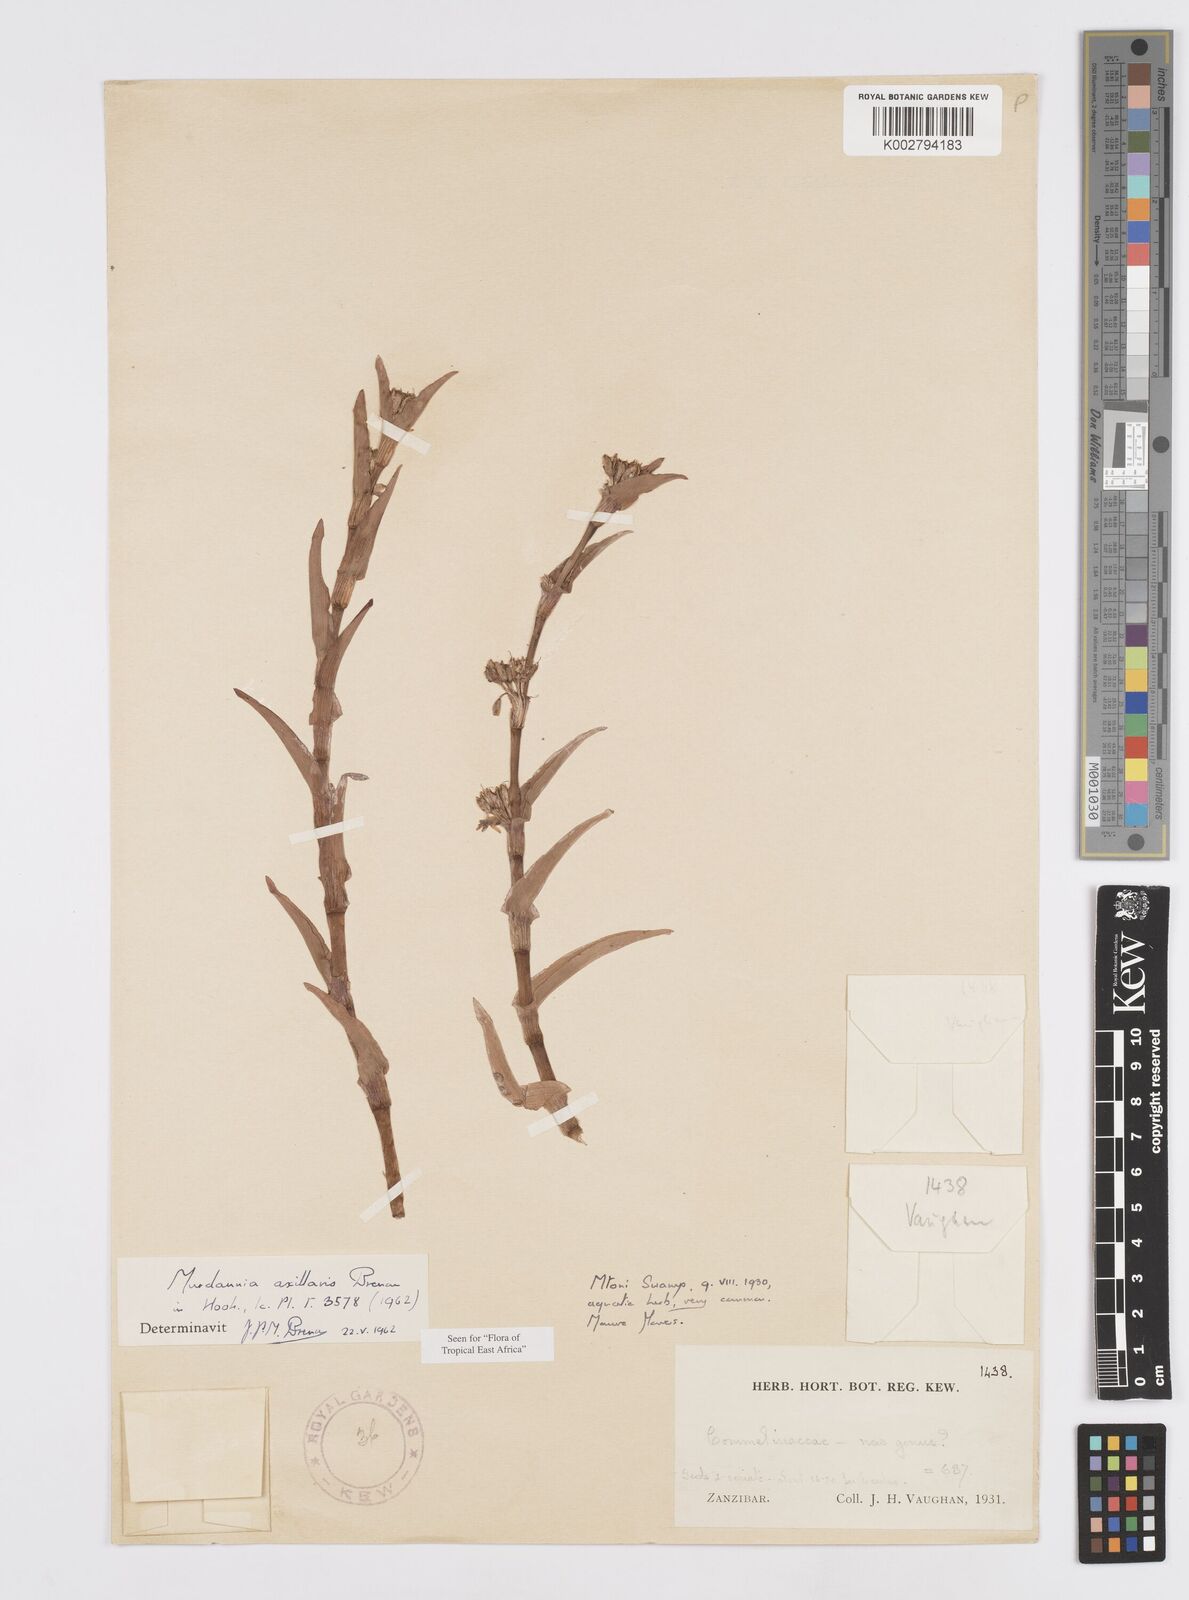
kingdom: Plantae
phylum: Tracheophyta
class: Liliopsida
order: Commelinales
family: Commelinaceae
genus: Murdannia
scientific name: Murdannia axillaris
